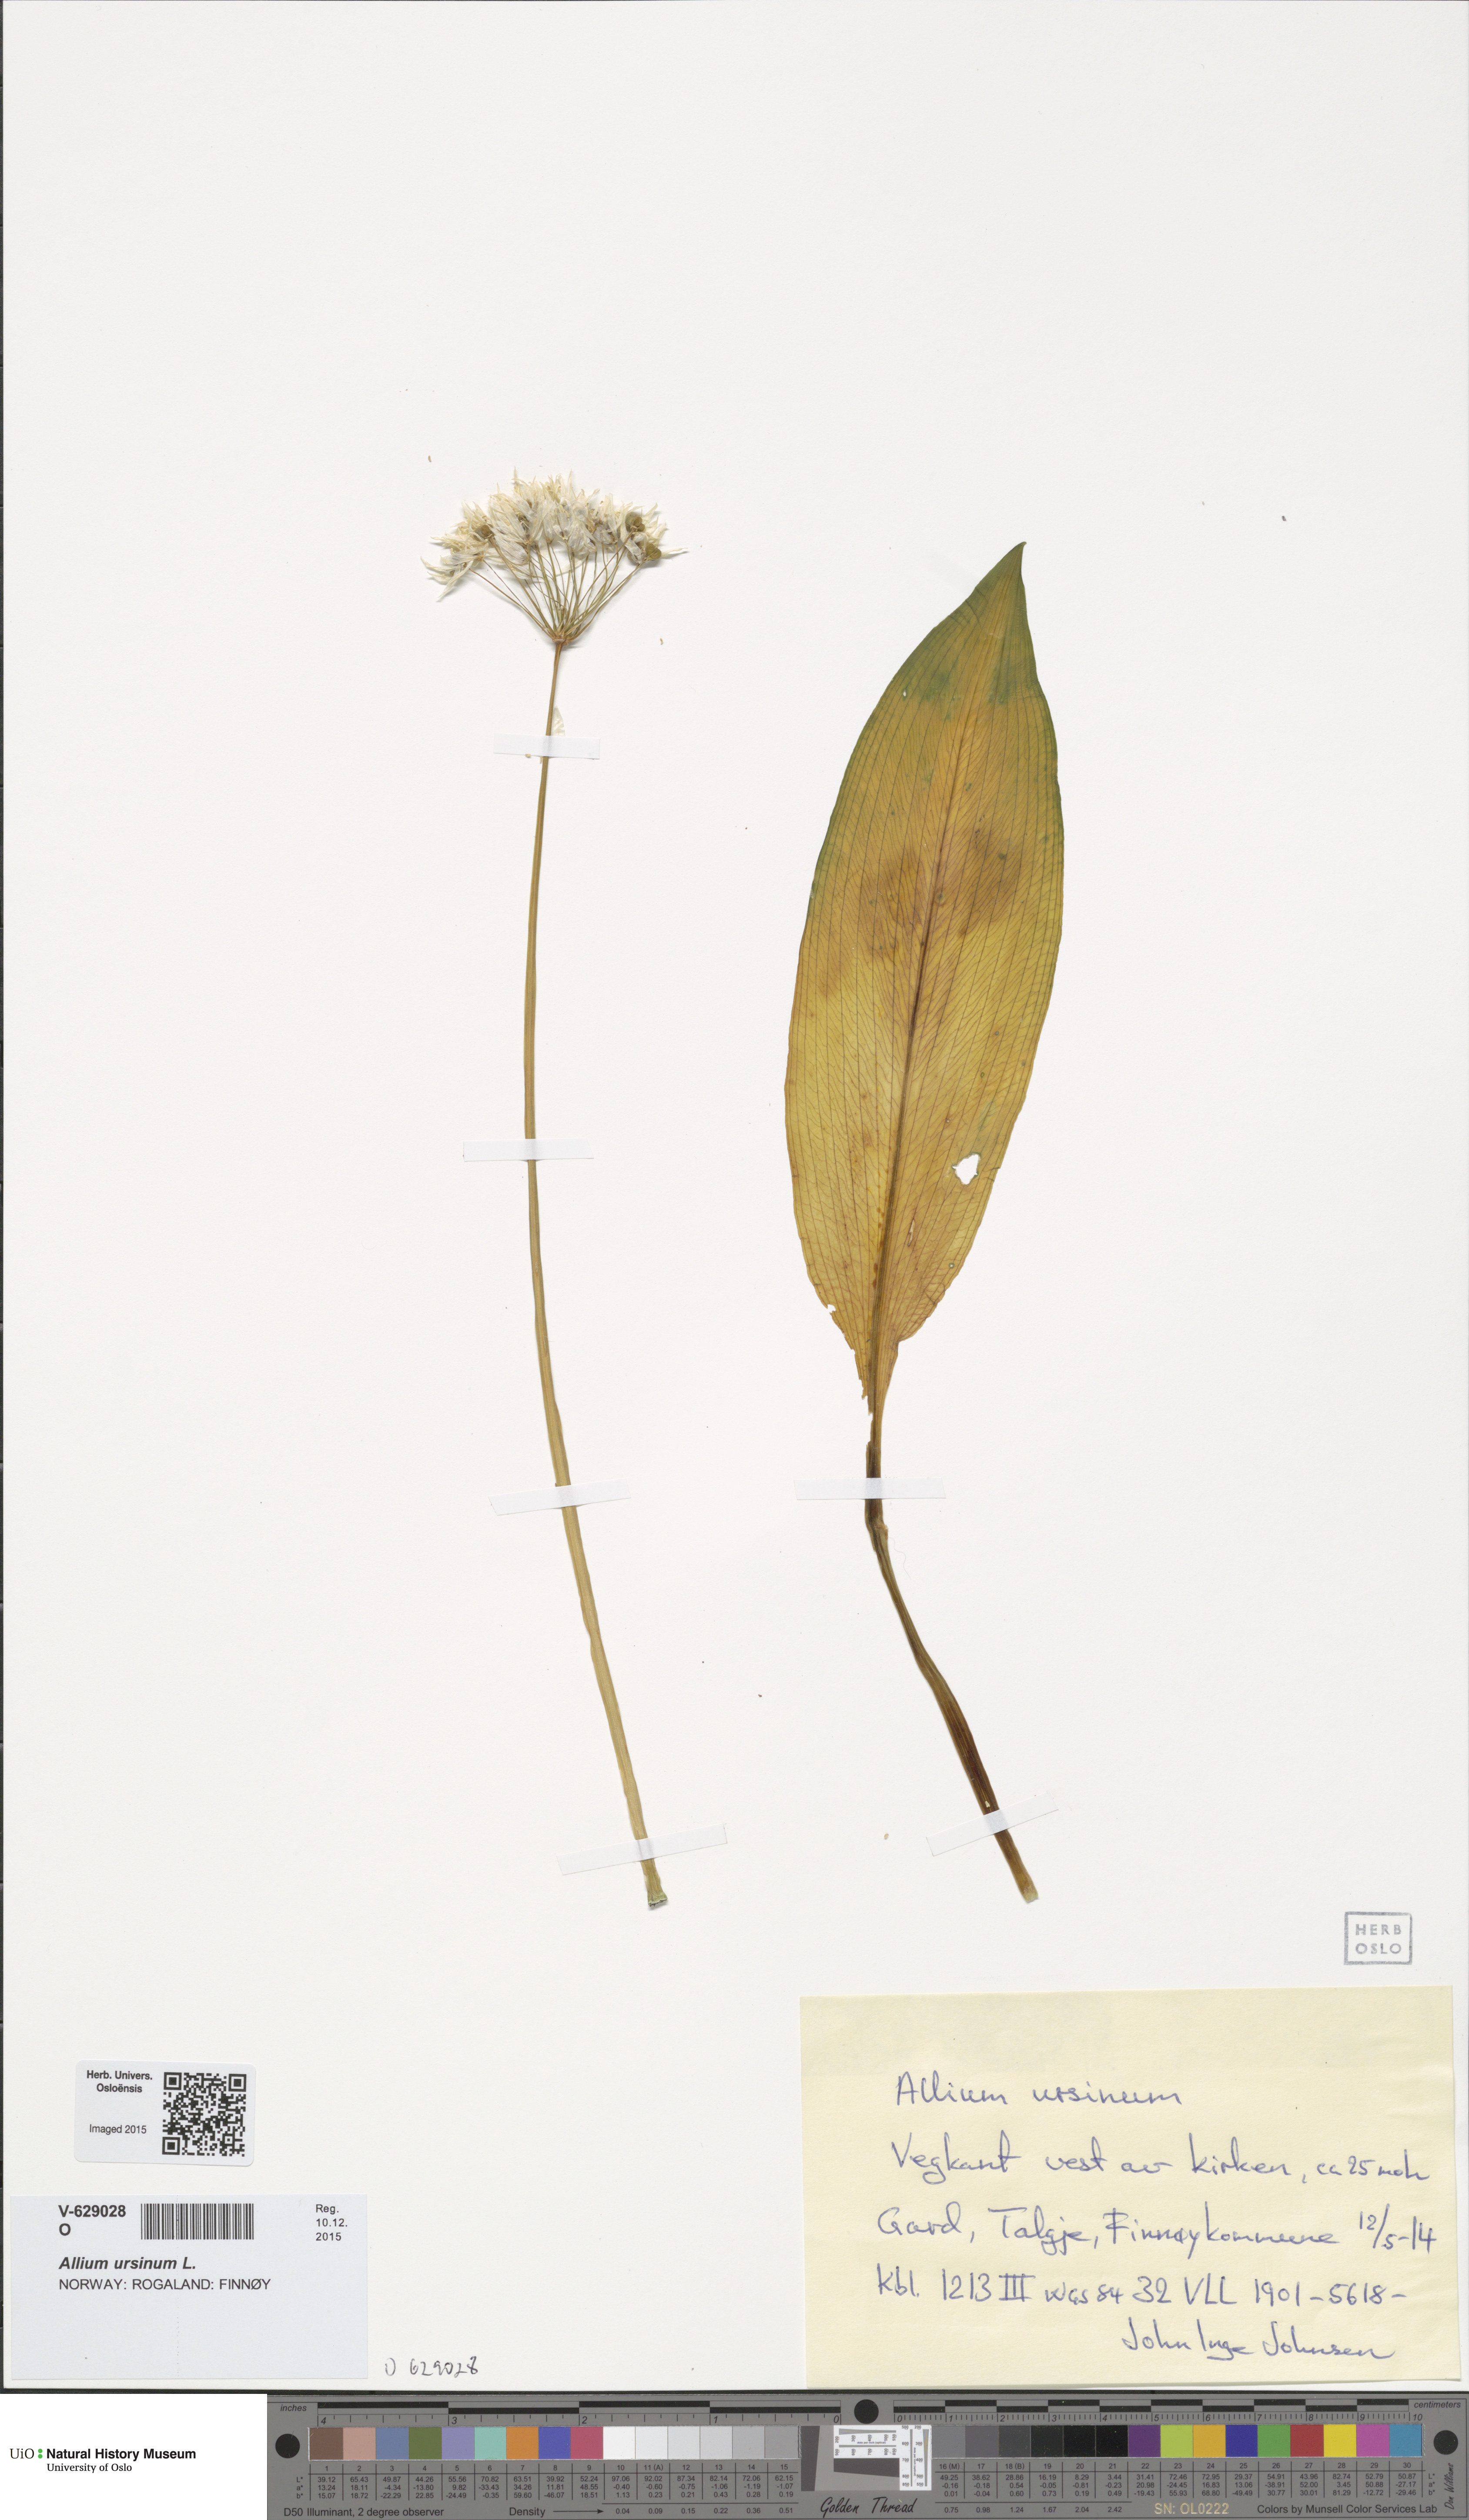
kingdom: Plantae
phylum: Tracheophyta
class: Liliopsida
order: Asparagales
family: Amaryllidaceae
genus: Allium
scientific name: Allium ursinum
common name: Ramsons
